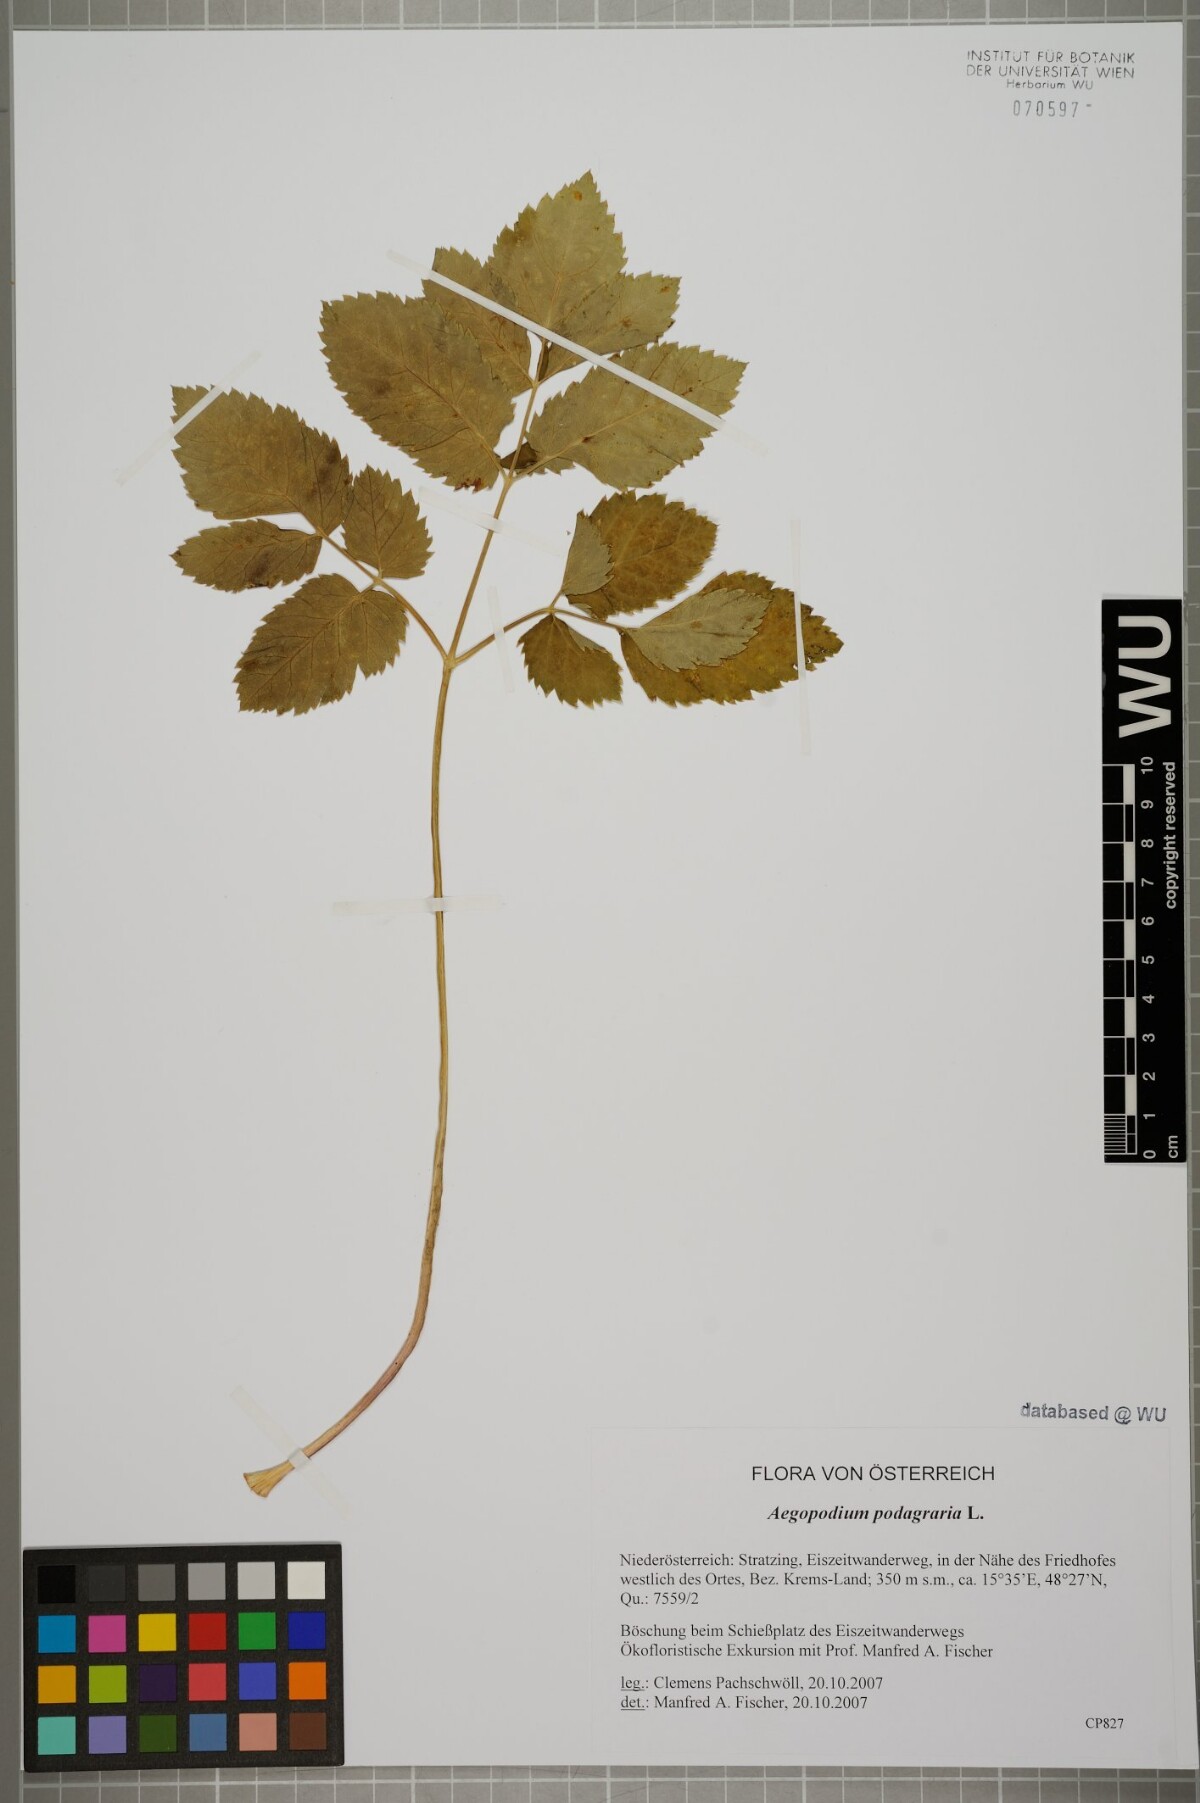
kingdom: Plantae
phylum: Tracheophyta
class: Magnoliopsida
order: Apiales
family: Apiaceae
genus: Aegopodium
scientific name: Aegopodium podagraria
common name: Ground-elder
